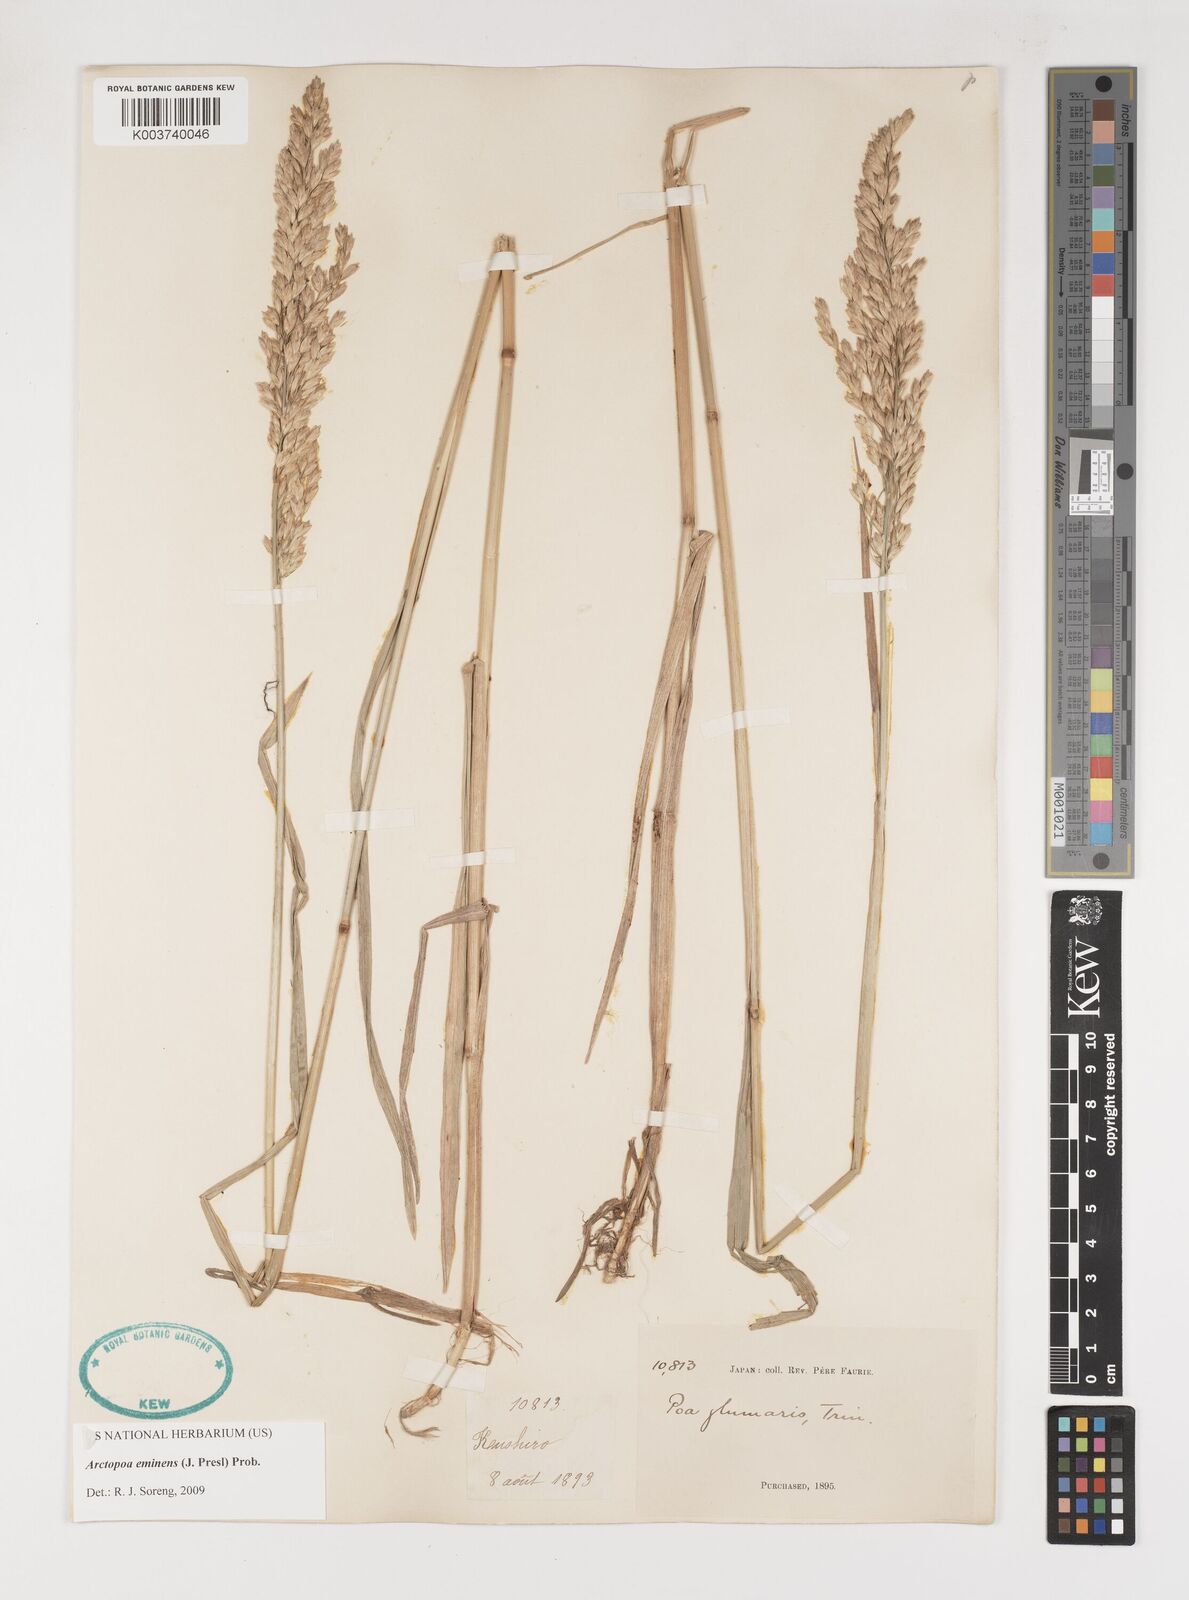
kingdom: Plantae
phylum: Tracheophyta
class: Liliopsida
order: Poales
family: Poaceae
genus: Arctopoa
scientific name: Arctopoa eminens
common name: Eminent bluegrass
